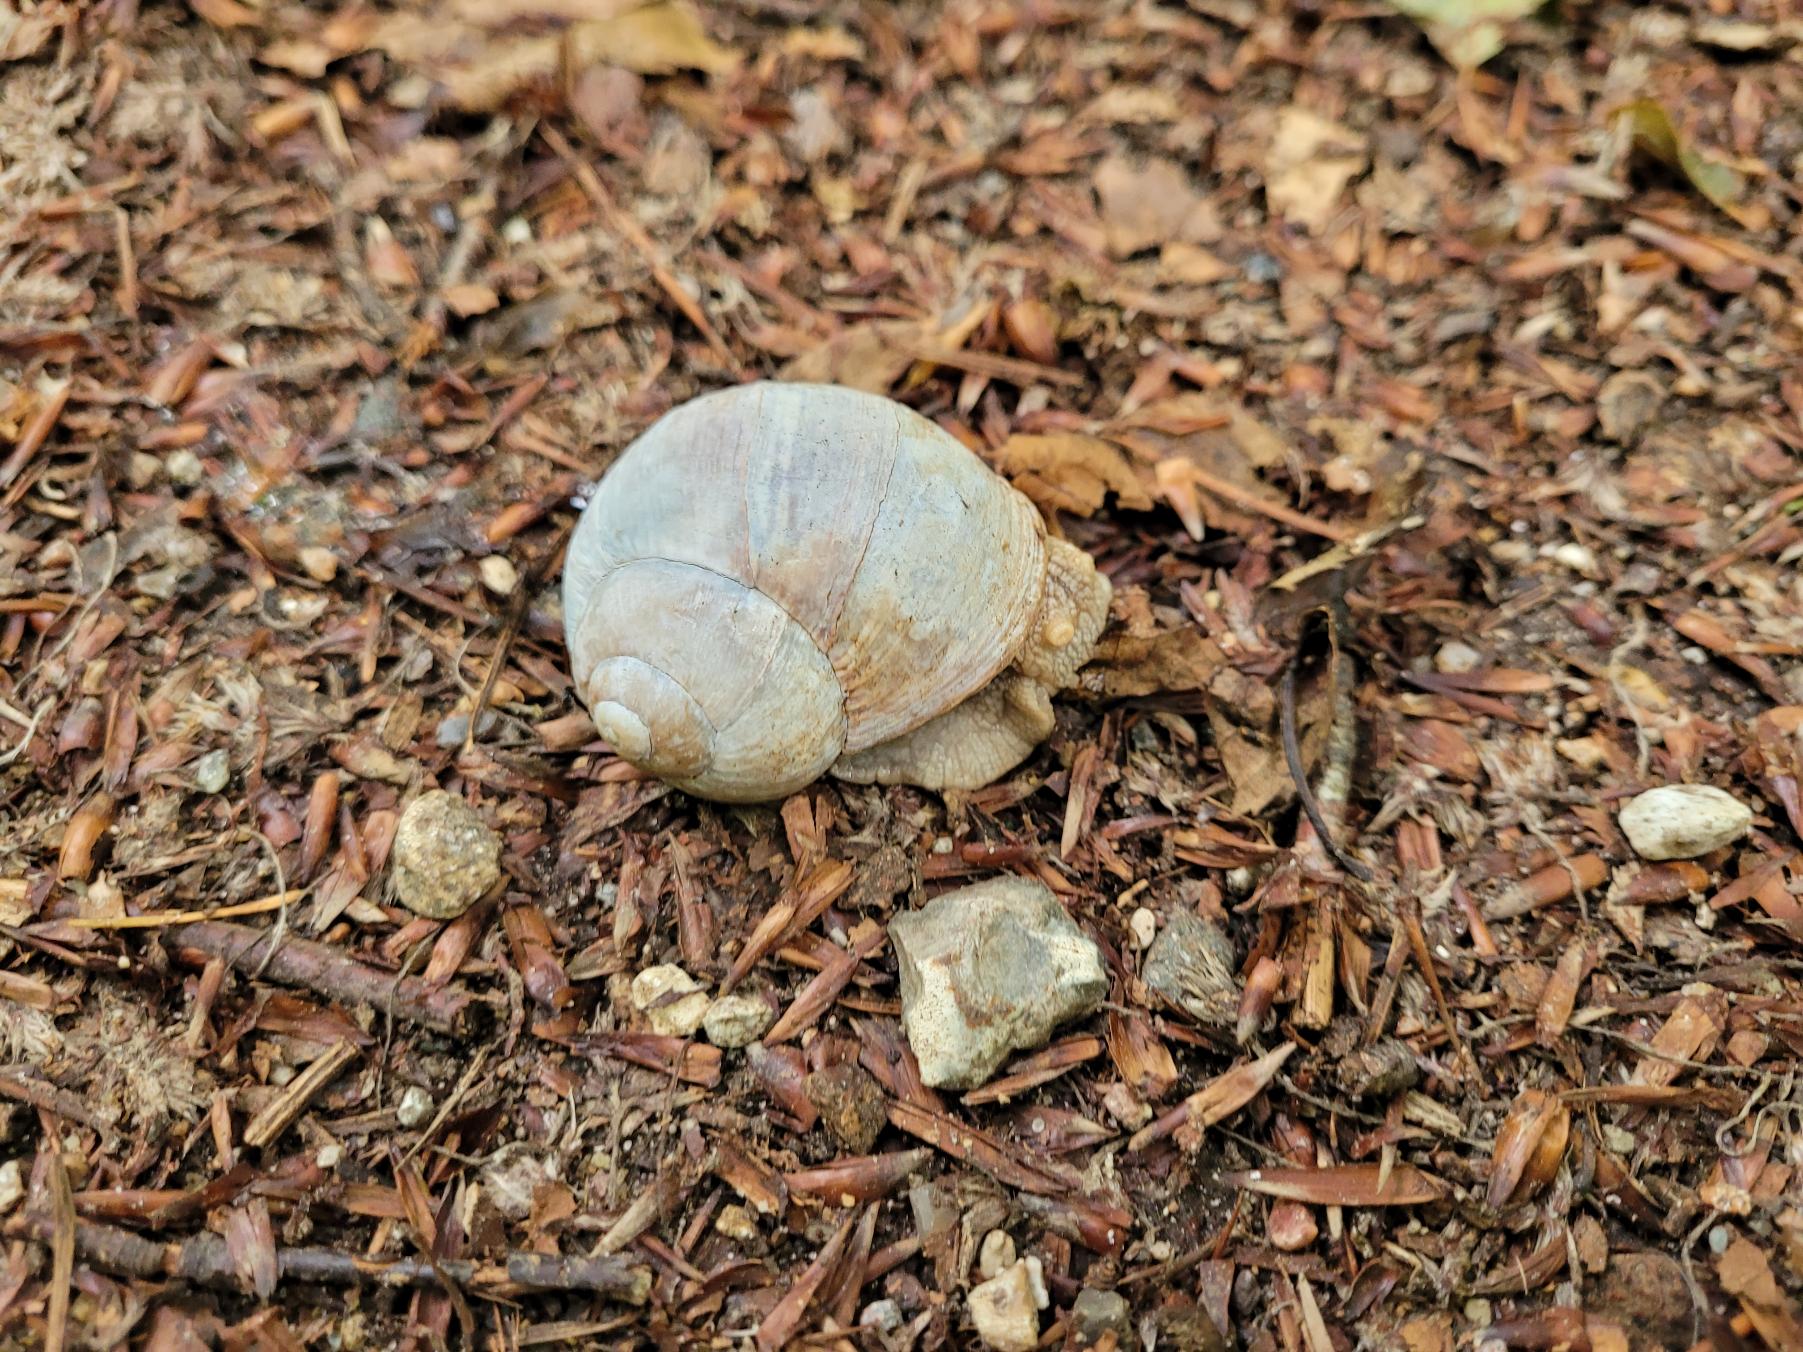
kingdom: Animalia
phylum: Mollusca
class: Gastropoda
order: Stylommatophora
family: Helicidae
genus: Helix
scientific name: Helix pomatia
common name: Vinbjergsnegl
